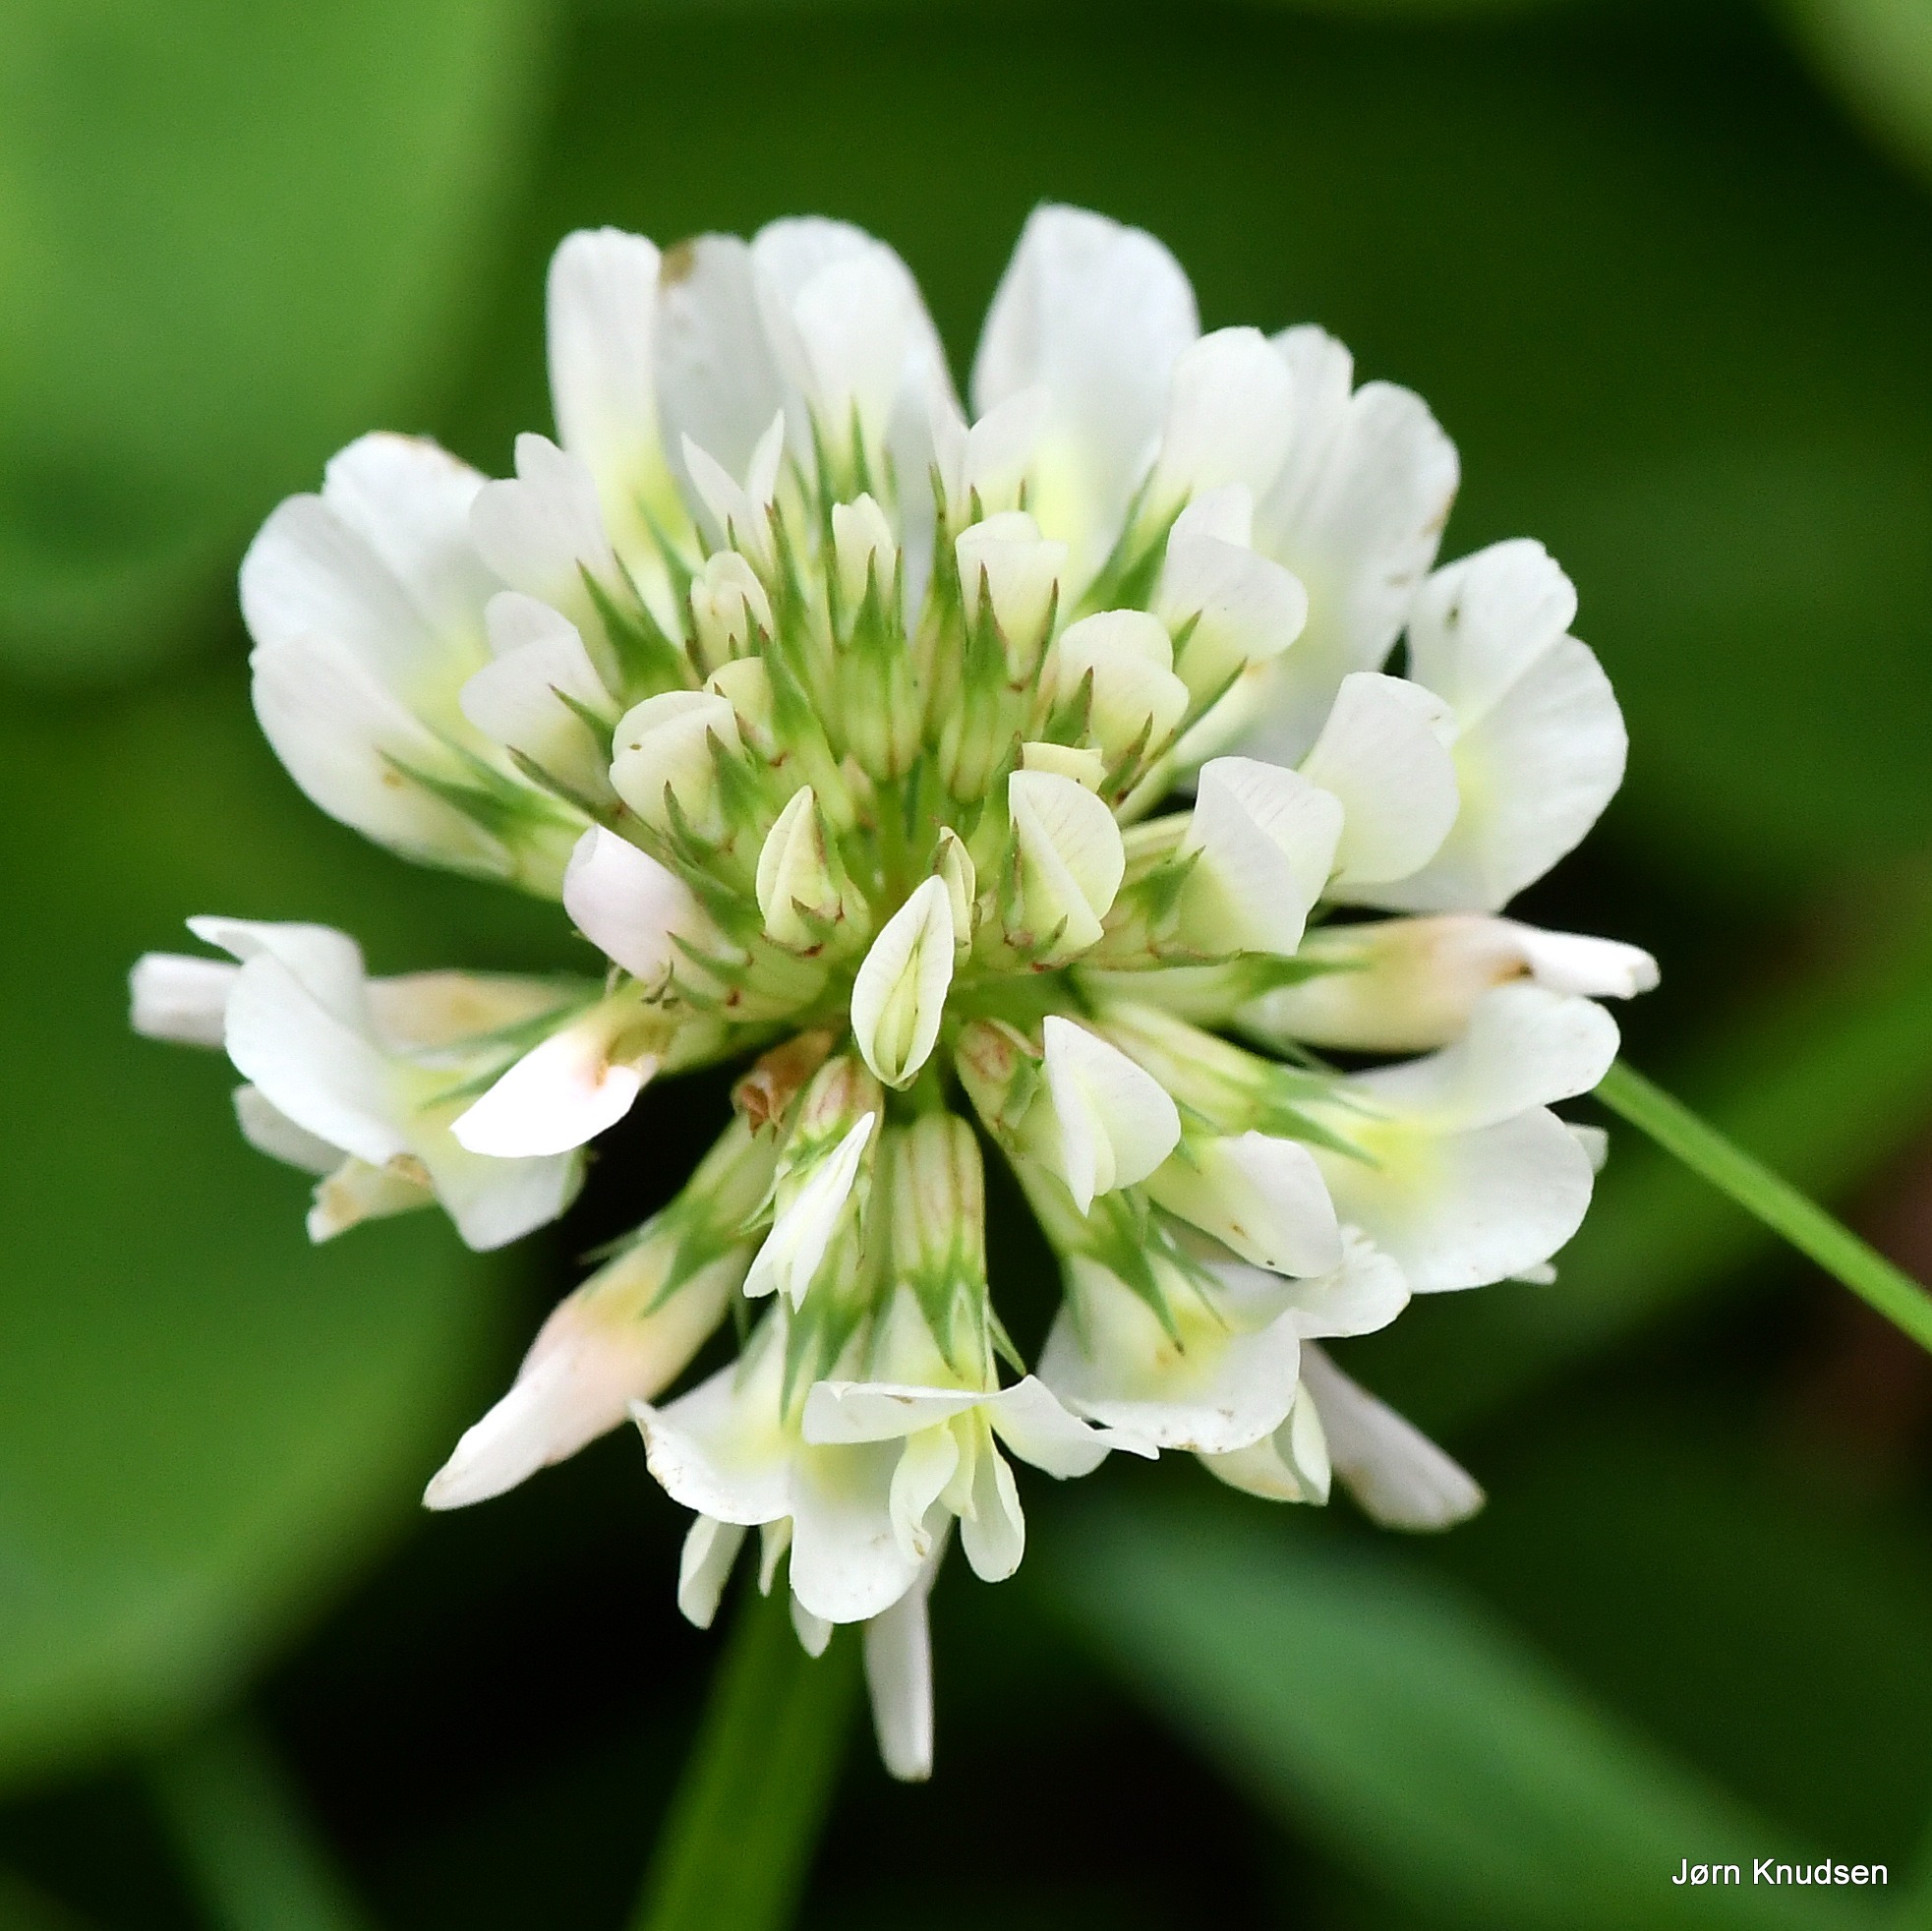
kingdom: Plantae
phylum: Tracheophyta
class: Magnoliopsida
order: Fabales
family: Fabaceae
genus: Trifolium
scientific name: Trifolium repens
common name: Hvid-kløver
